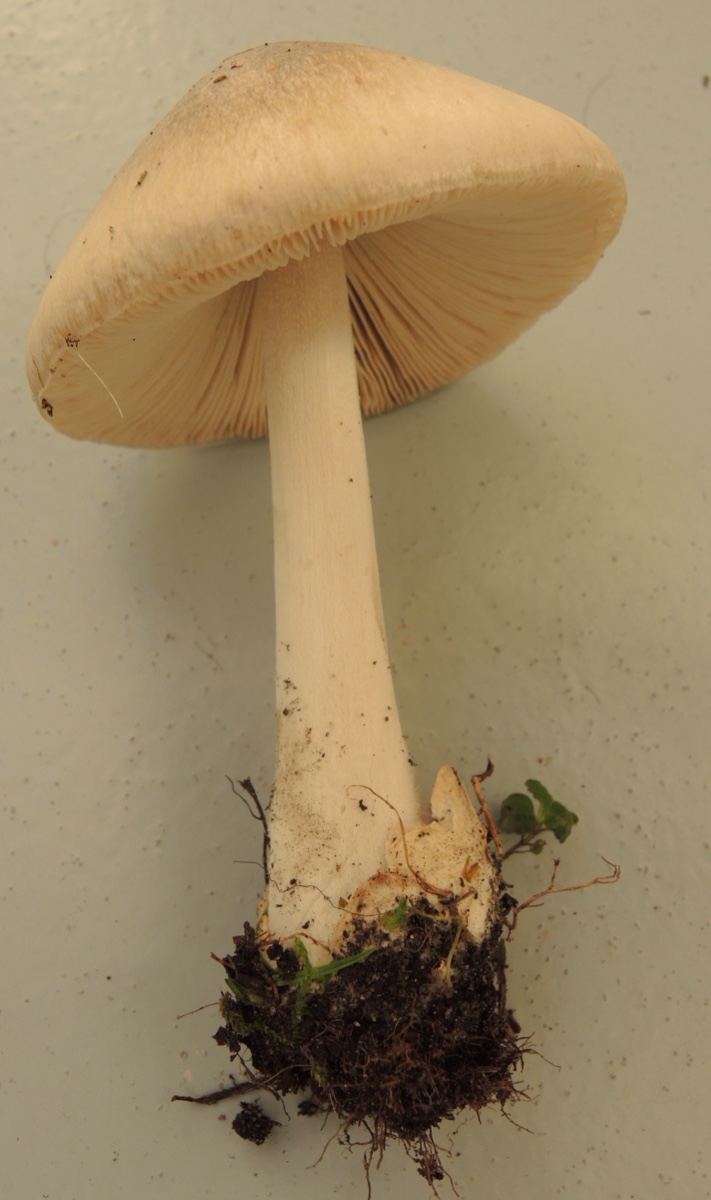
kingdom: Fungi
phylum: Basidiomycota
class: Agaricomycetes
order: Agaricales
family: Pluteaceae
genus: Volvopluteus
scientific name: Volvopluteus gloiocephalus
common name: høj posesvamp
